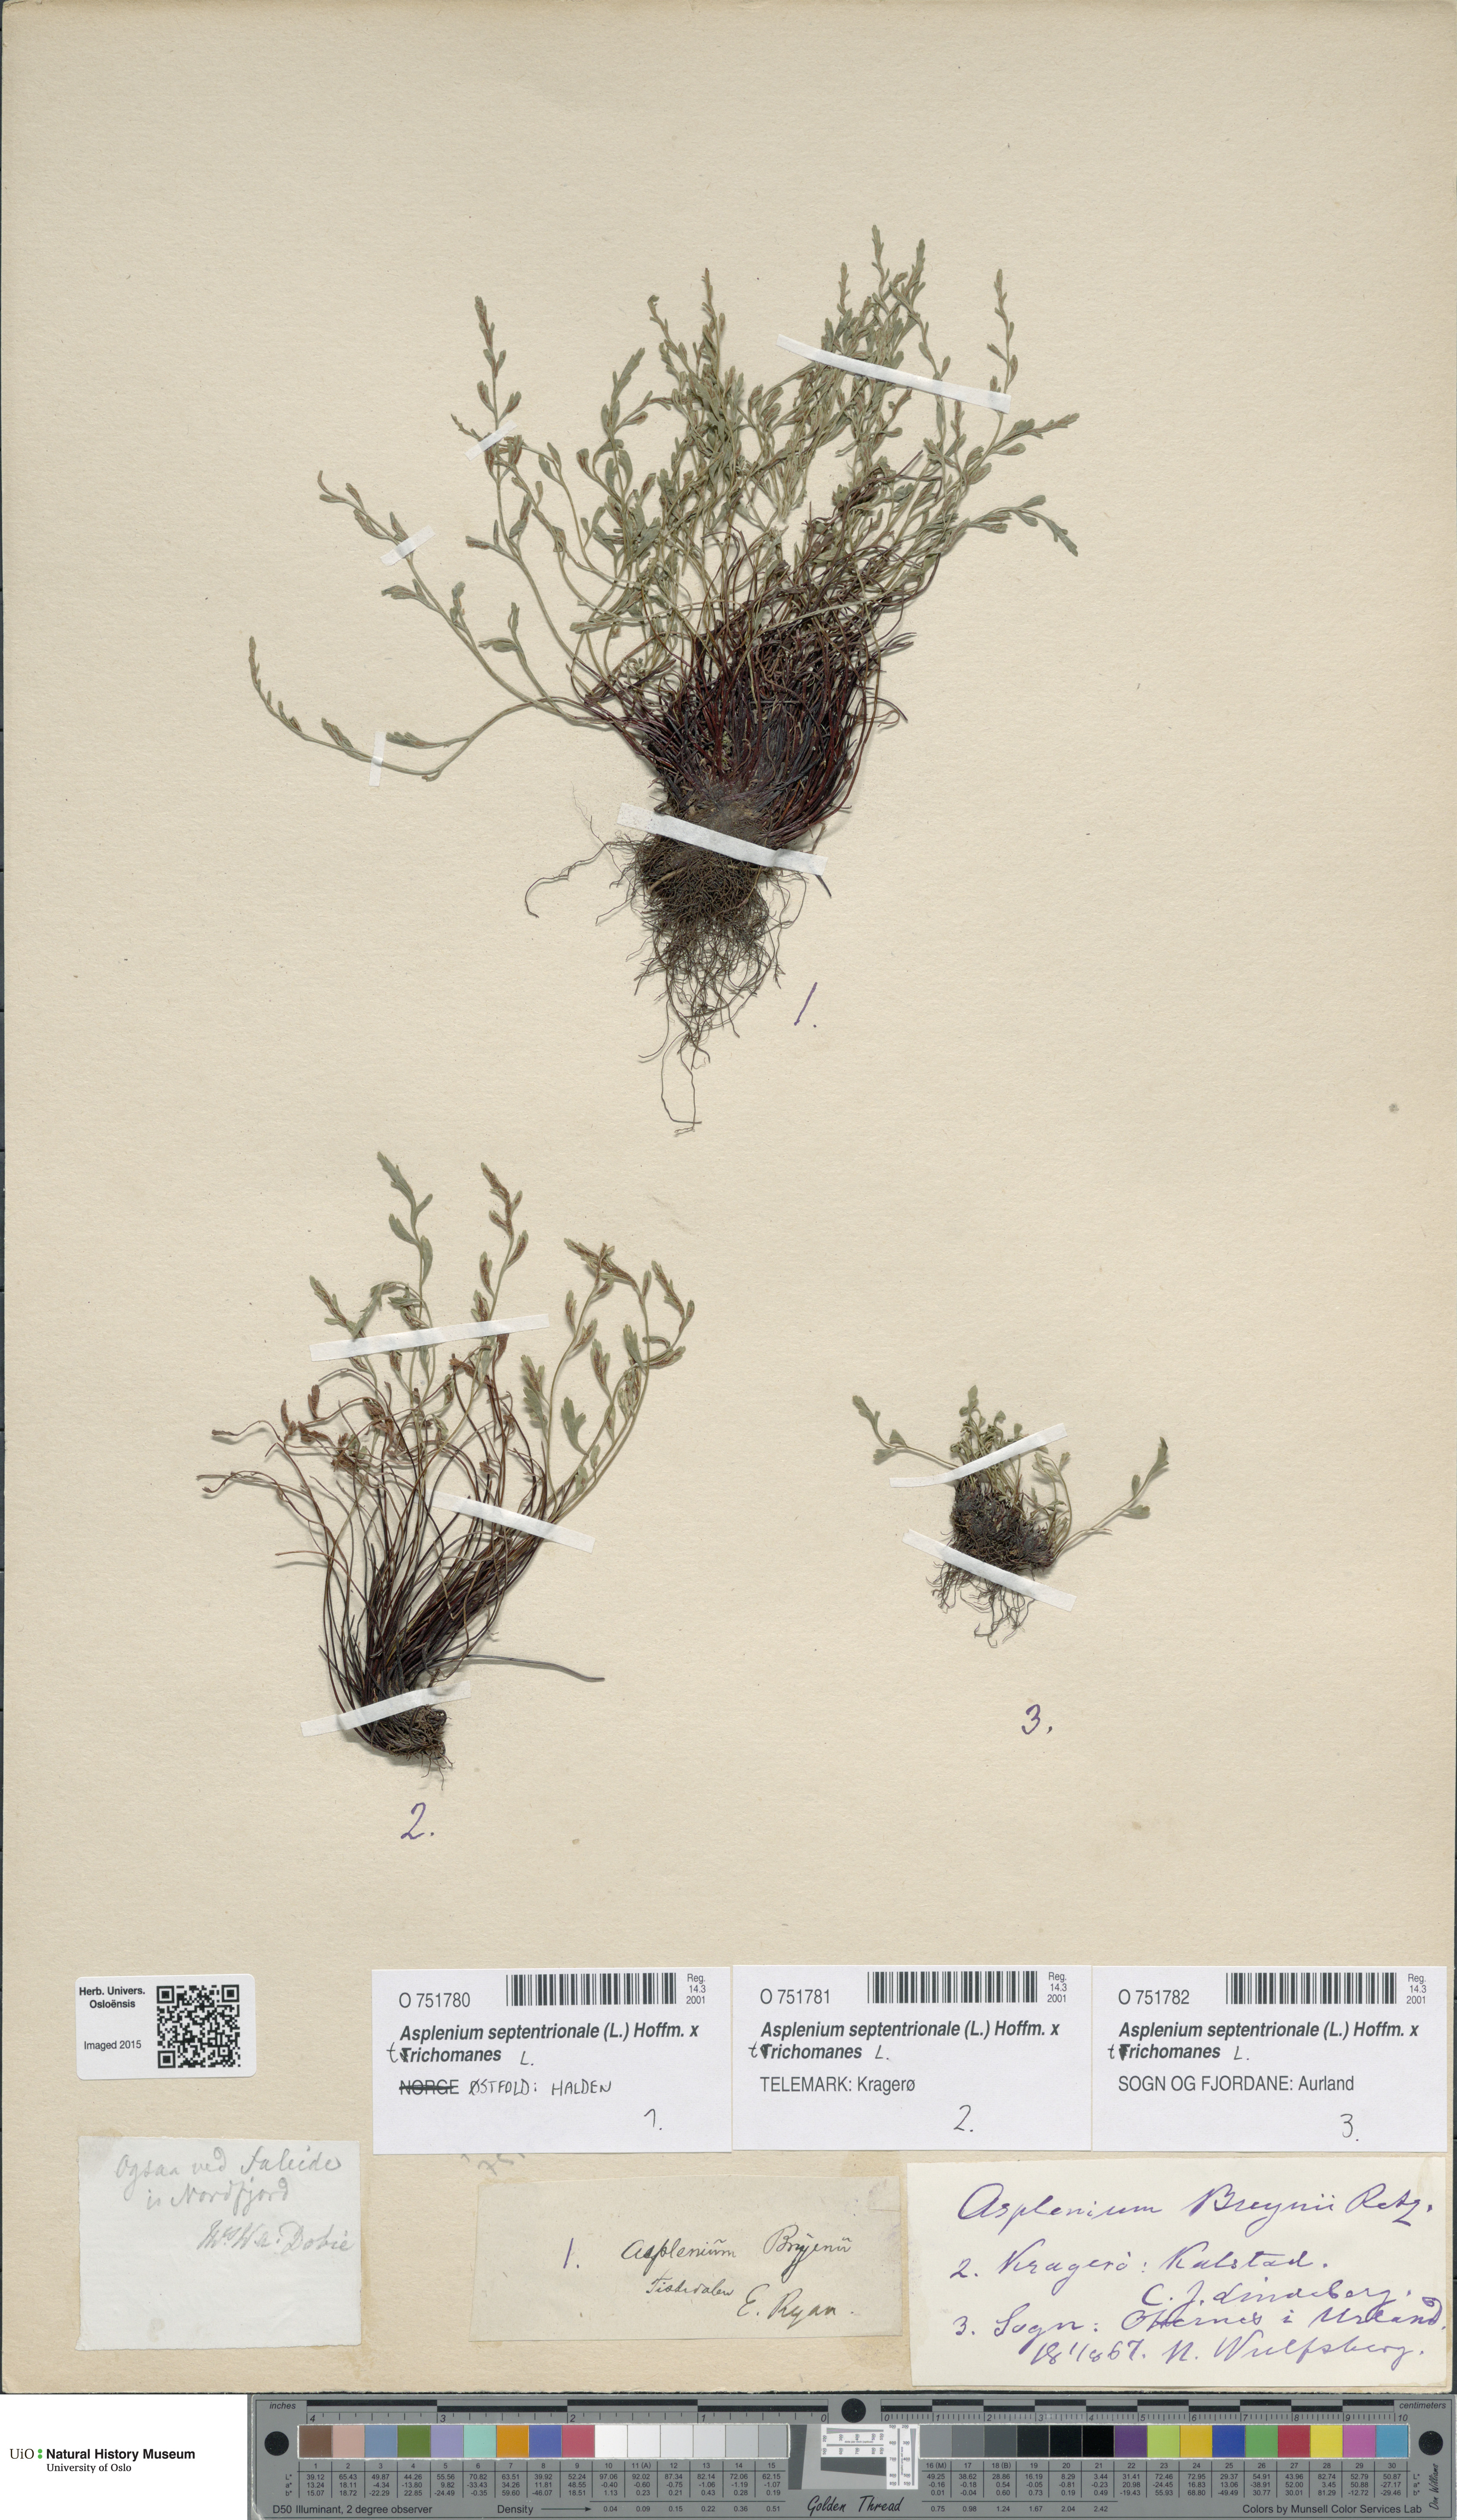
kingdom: Plantae
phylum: Tracheophyta
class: Polypodiopsida
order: Polypodiales
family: Aspleniaceae
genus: Asplenium
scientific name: Asplenium
